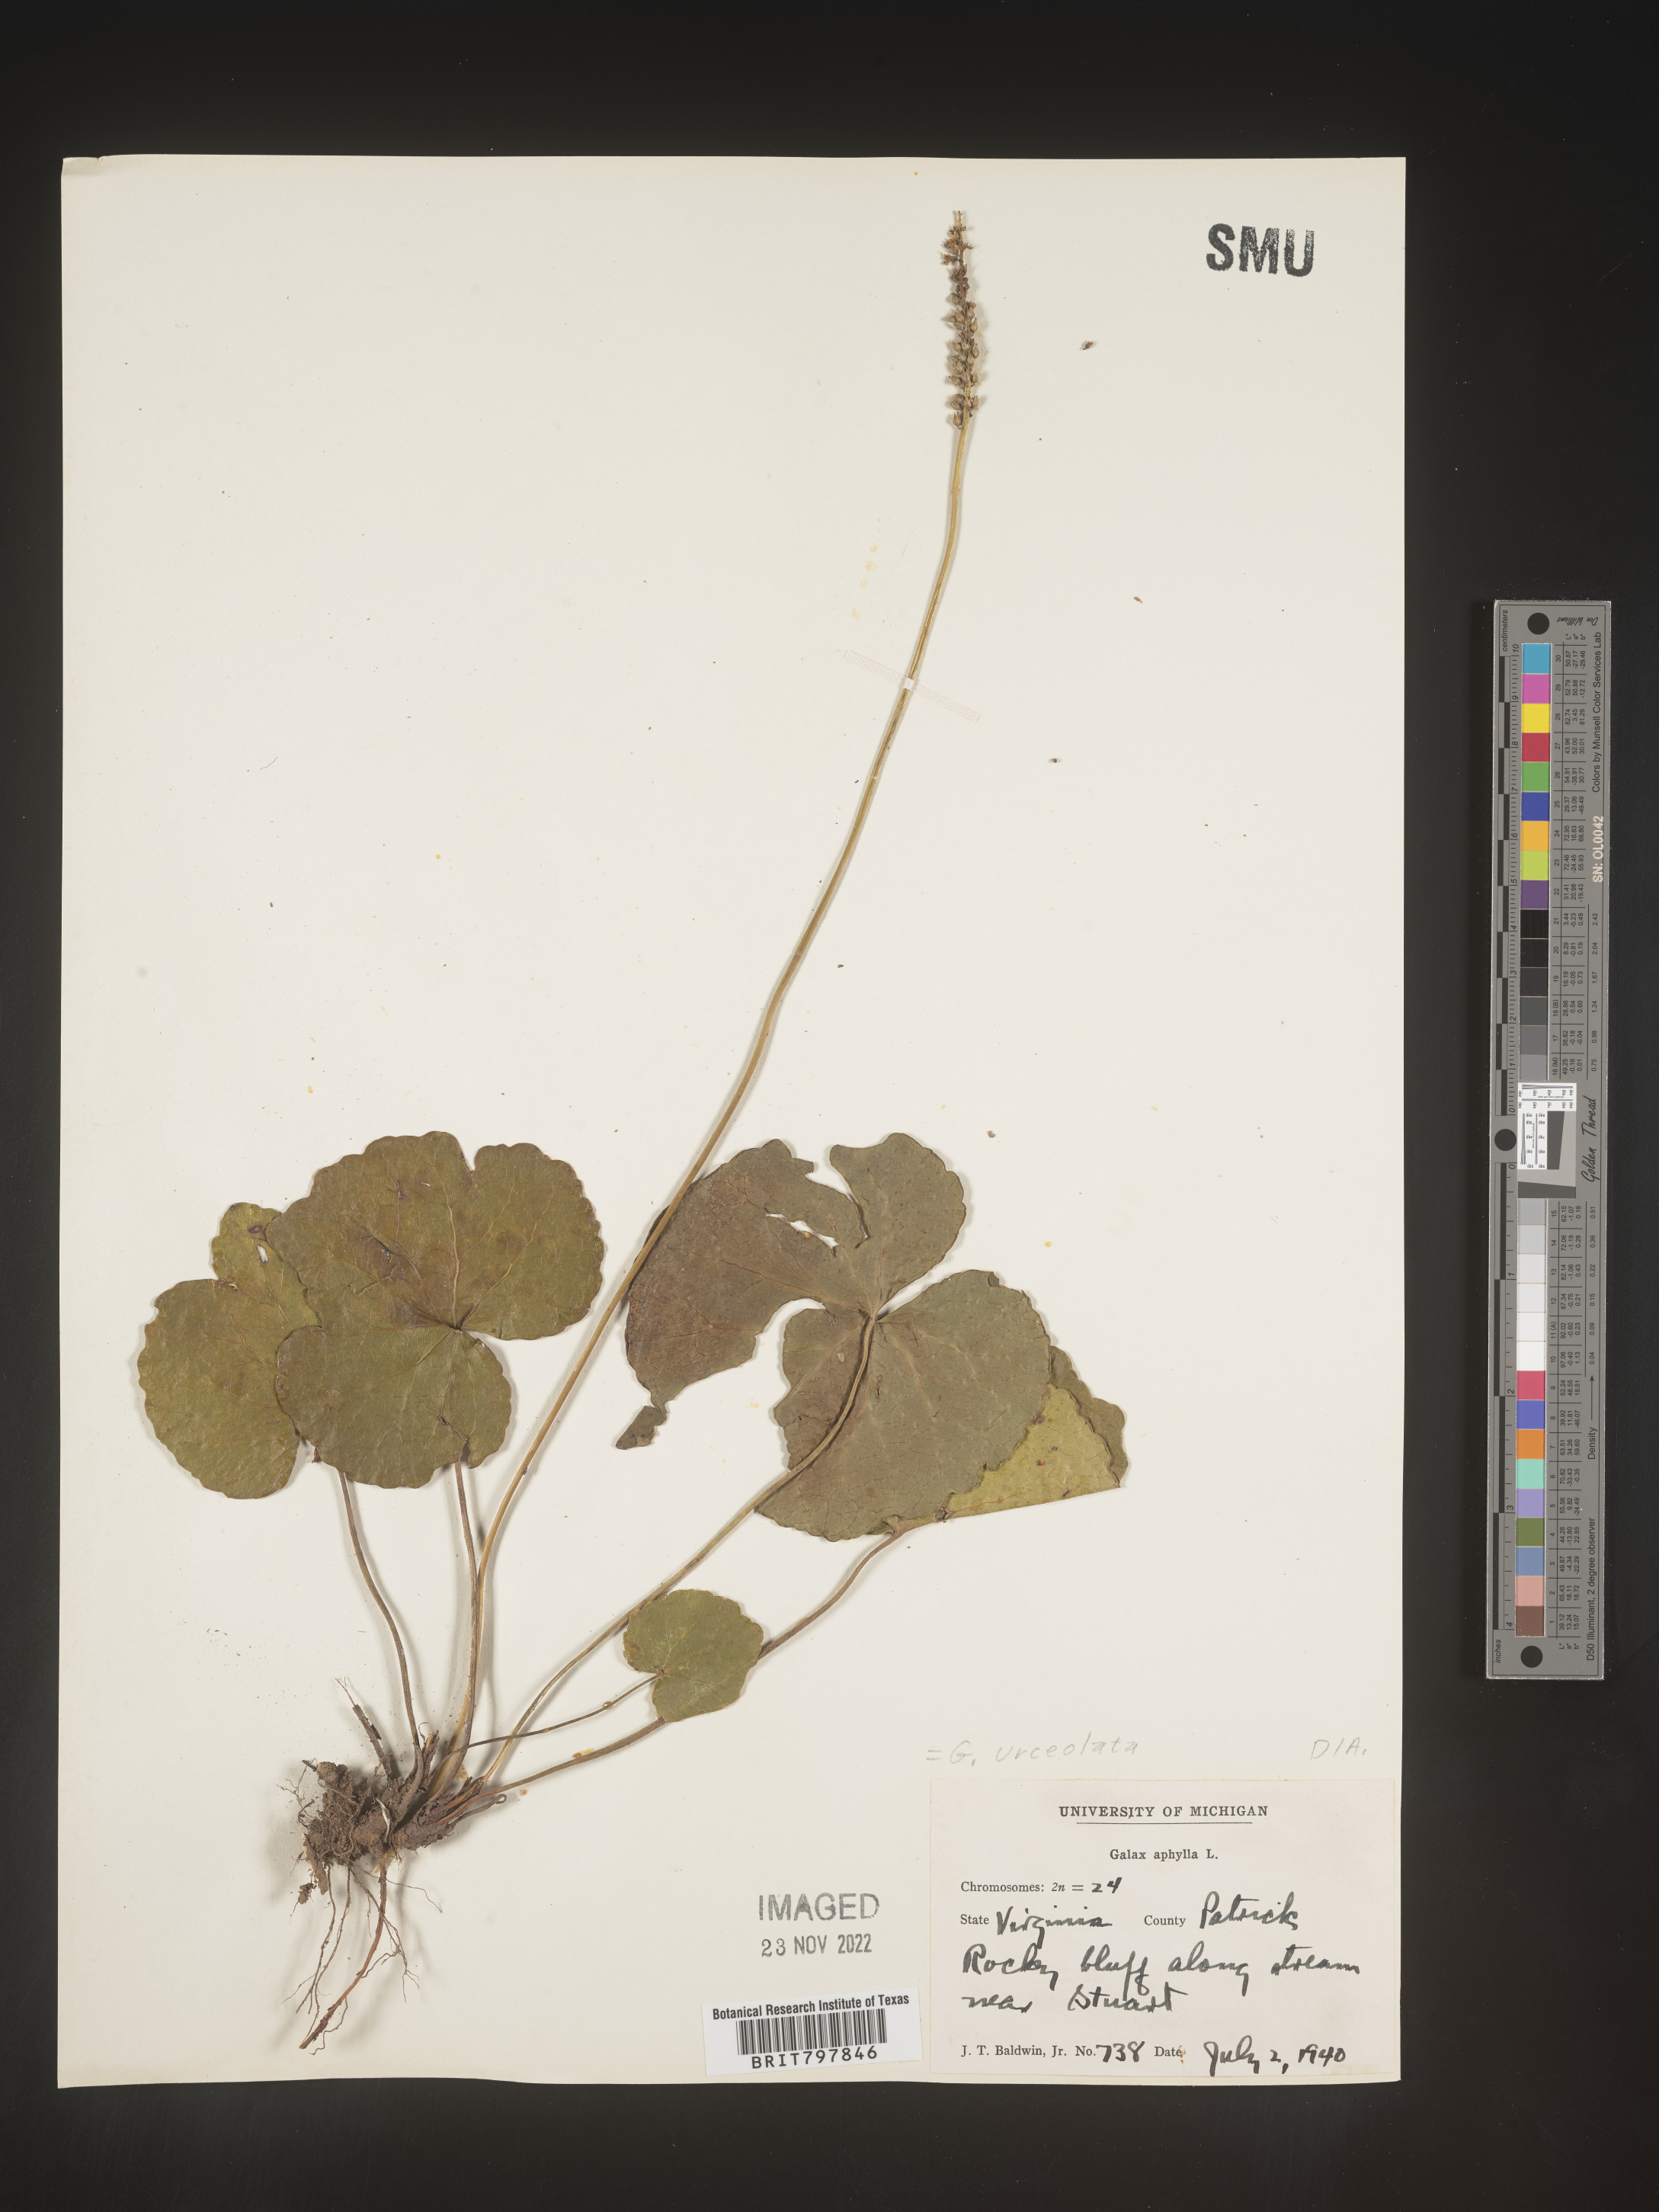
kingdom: Plantae
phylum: Tracheophyta
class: Magnoliopsida
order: Ericales
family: Diapensiaceae
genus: Galax
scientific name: Galax
